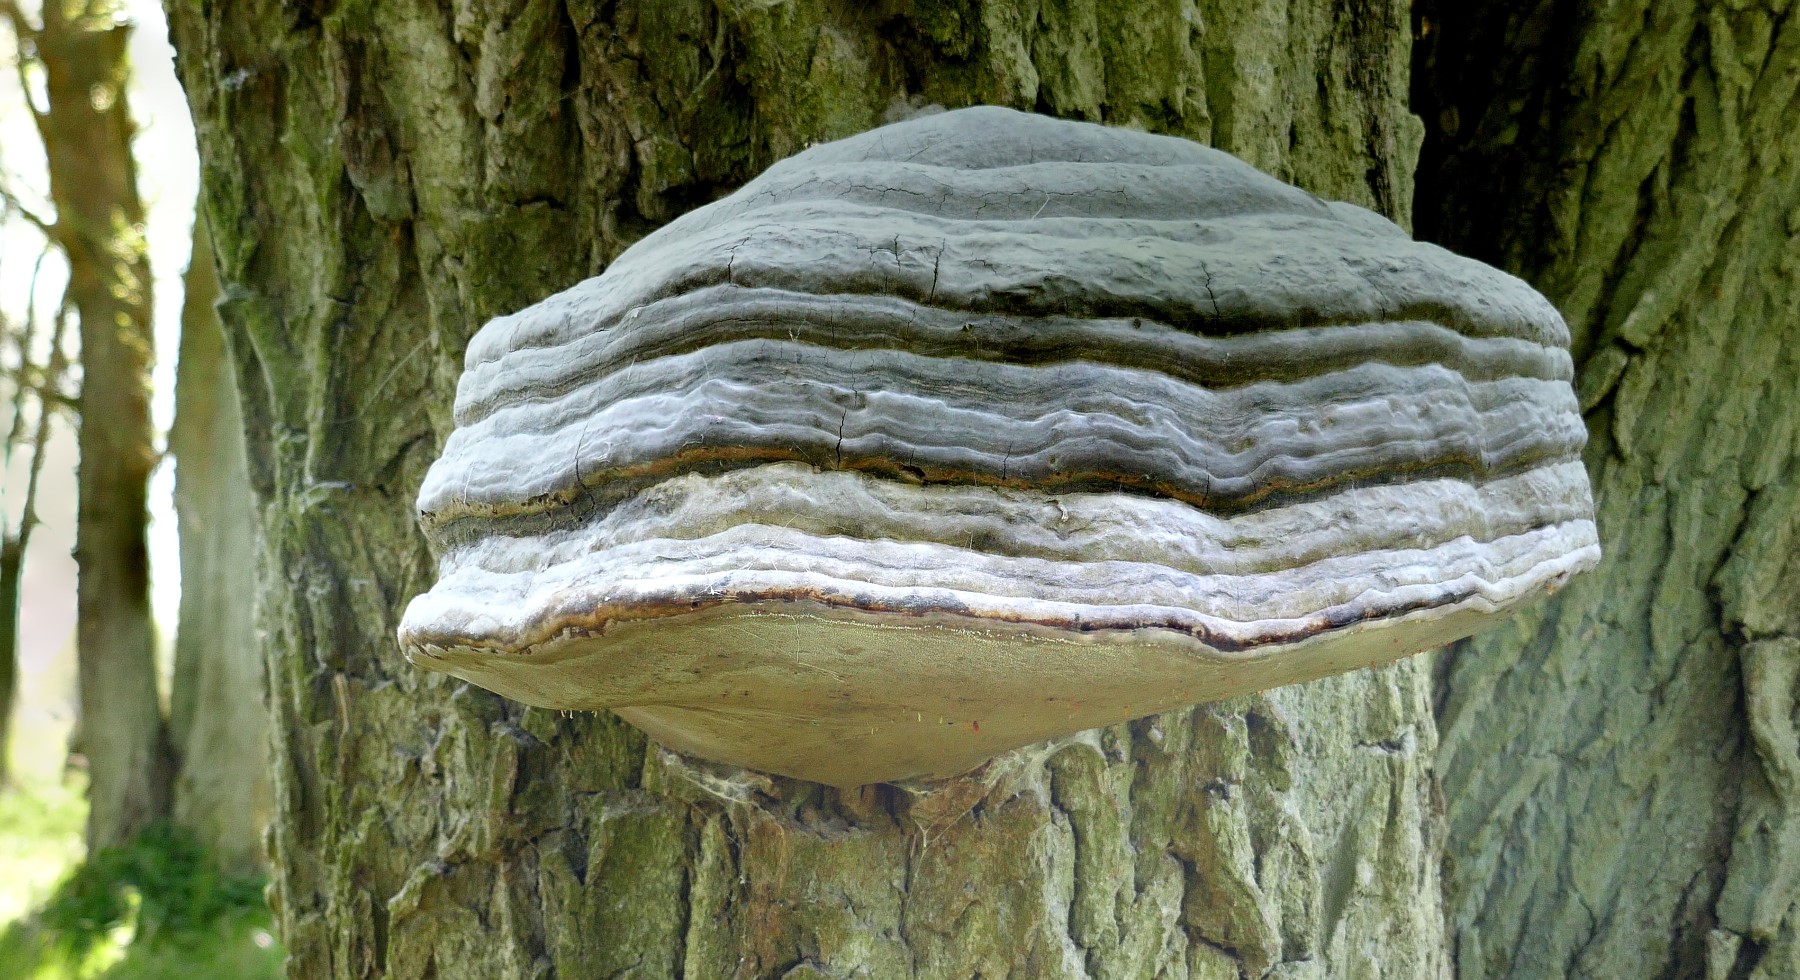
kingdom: Fungi
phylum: Basidiomycota
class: Agaricomycetes
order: Polyporales
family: Polyporaceae
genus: Fomes
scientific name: Fomes fomentarius
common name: tøndersvamp
